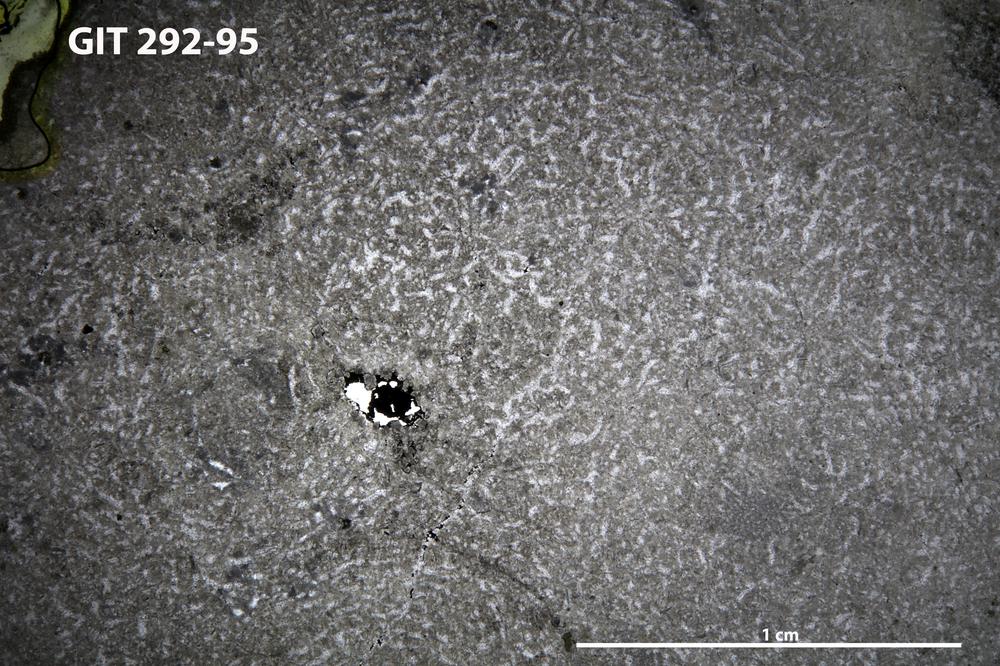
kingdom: Animalia
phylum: Porifera
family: Pseudolabechiidae
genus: Vikingia
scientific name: Vikingia
